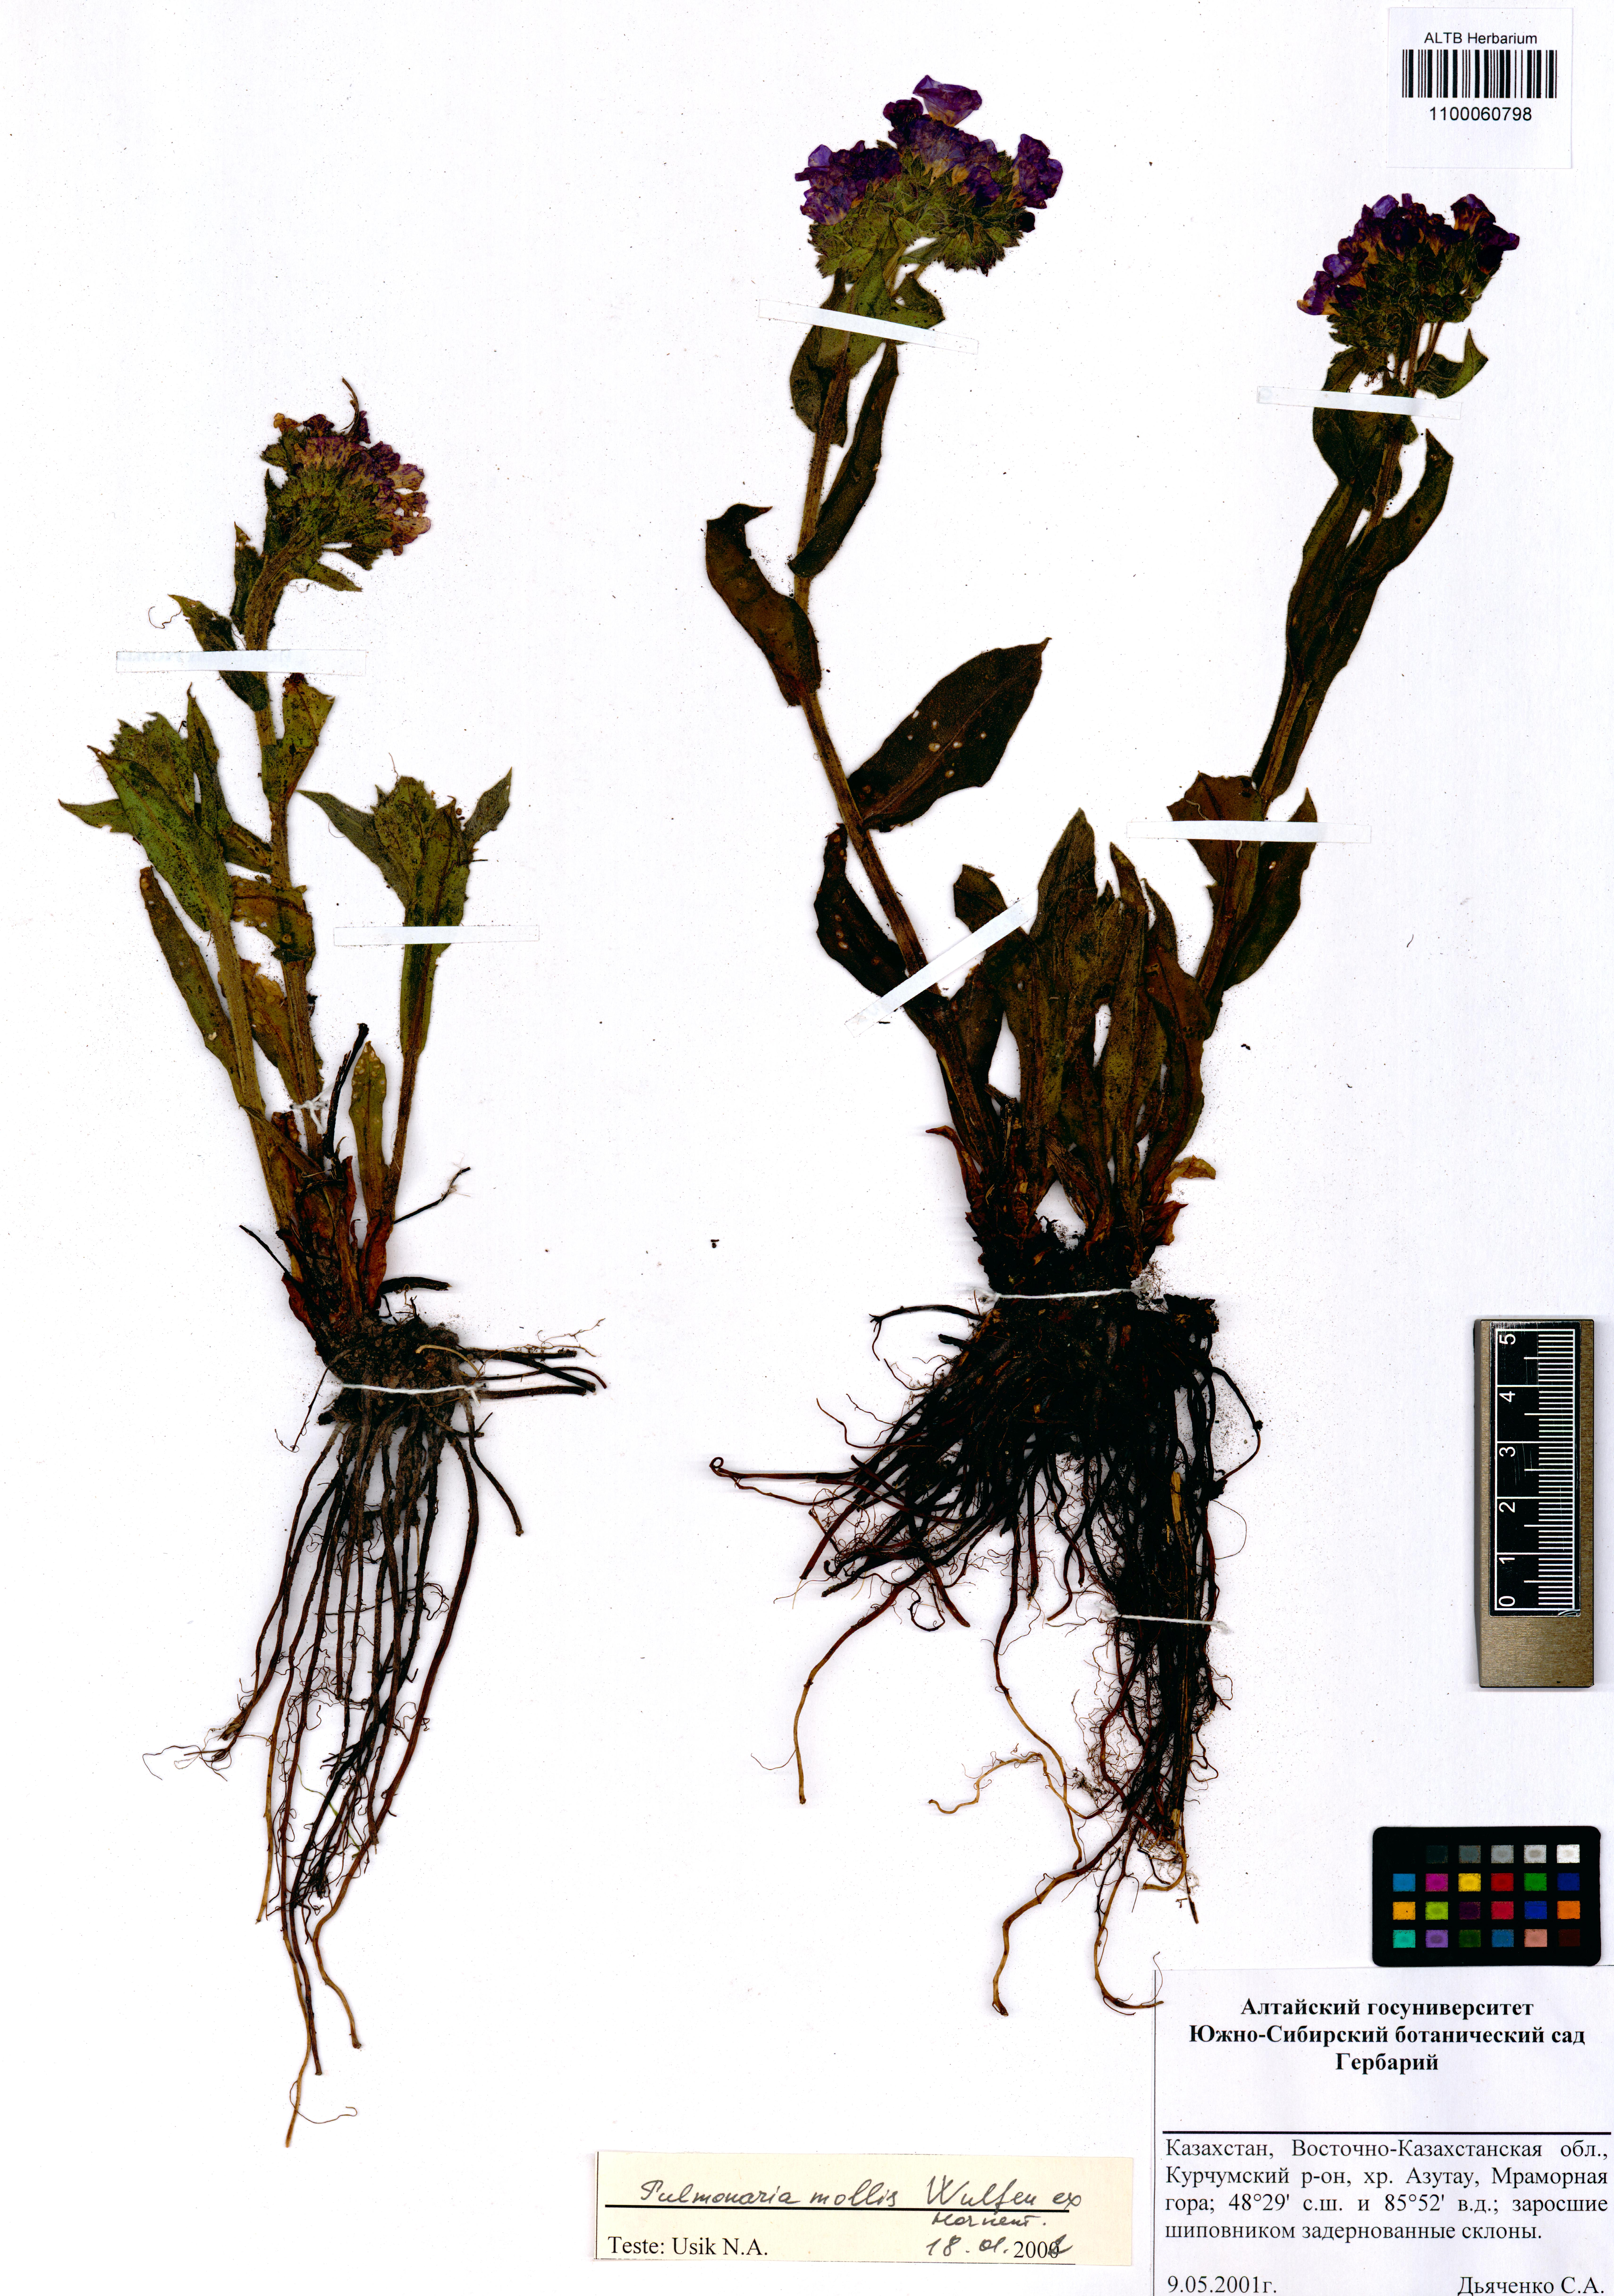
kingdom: Plantae
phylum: Tracheophyta
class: Magnoliopsida
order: Boraginales
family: Boraginaceae
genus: Pulmonaria
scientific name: Pulmonaria mollis
